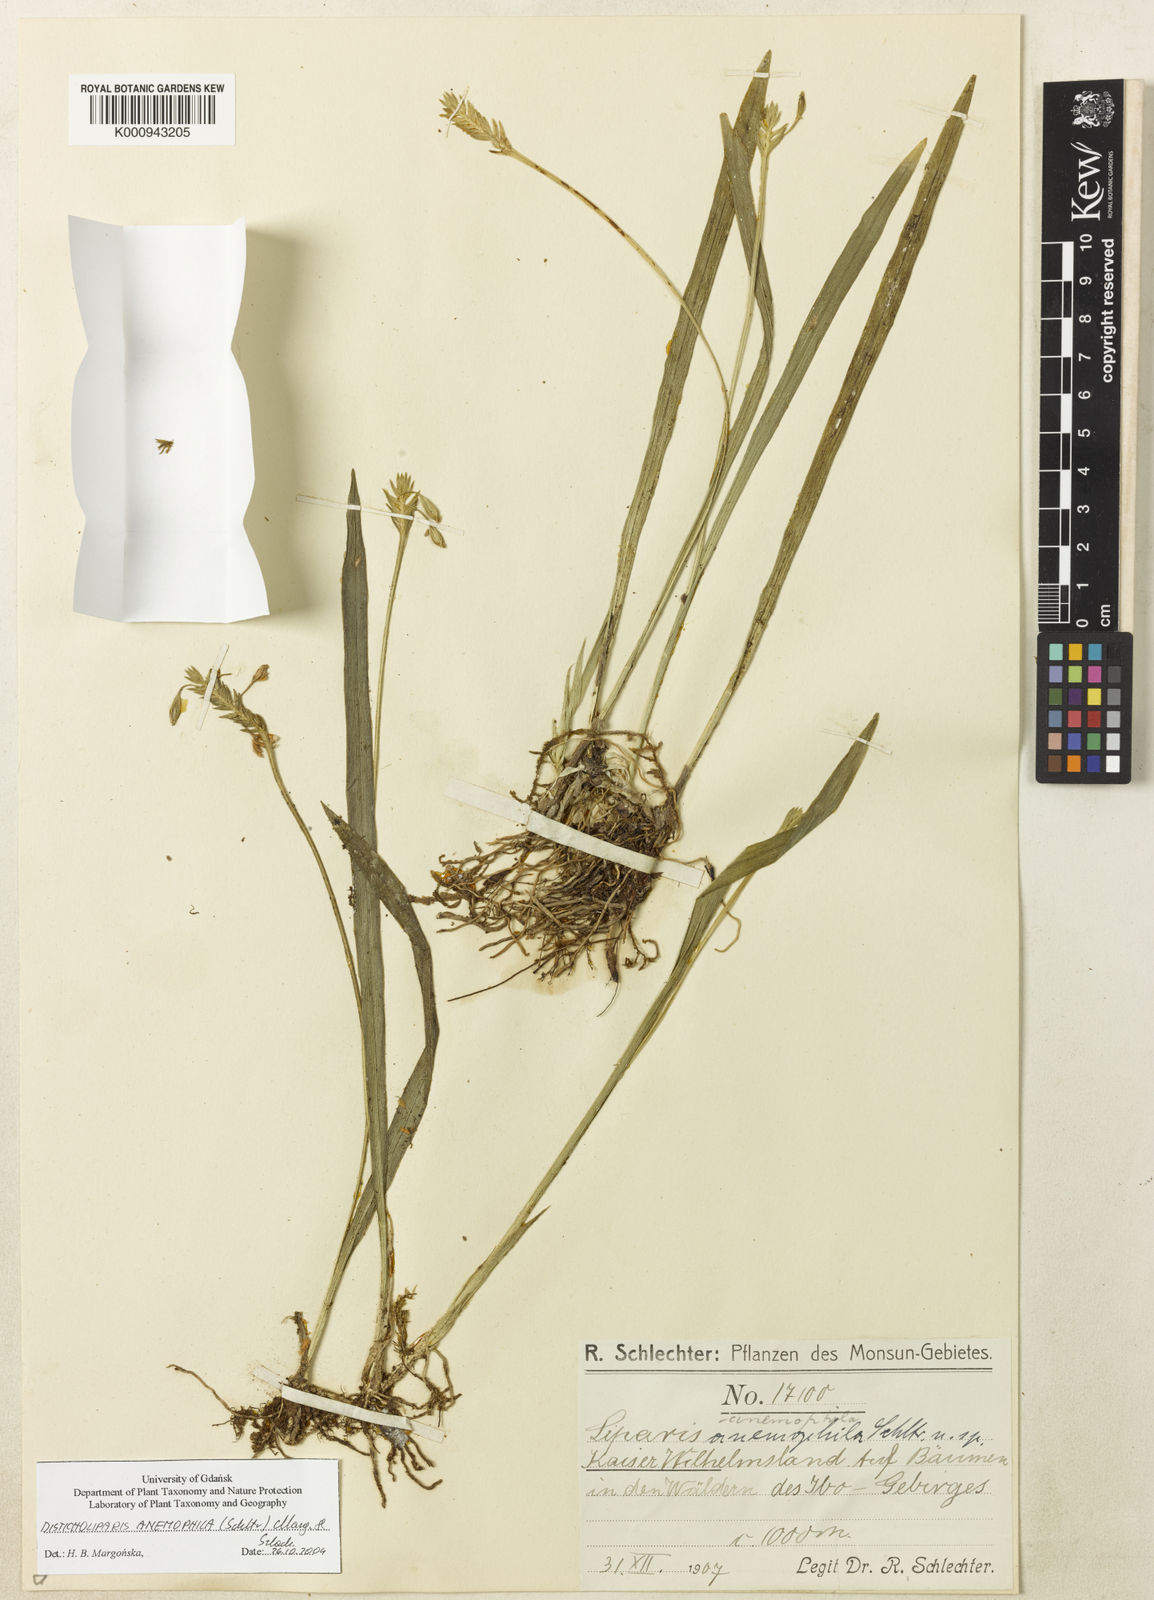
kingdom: Plantae
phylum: Tracheophyta
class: Liliopsida
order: Asparagales
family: Orchidaceae
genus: Liparis
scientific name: Liparis anemophila
